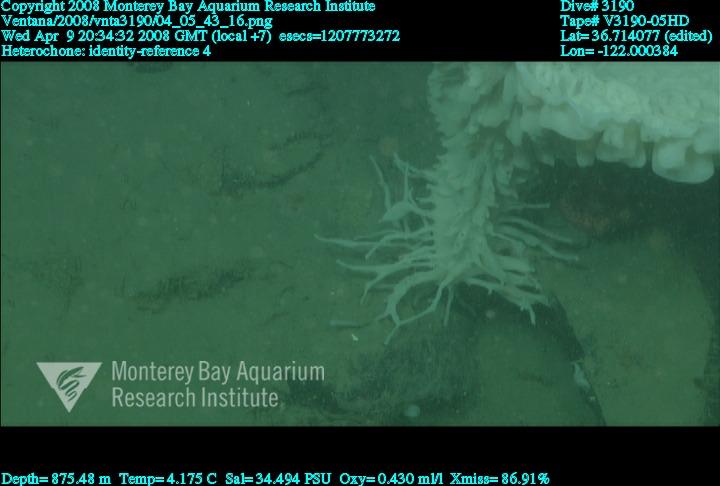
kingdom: Animalia
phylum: Porifera
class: Hexactinellida
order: Sceptrulophora
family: Aphrocallistidae
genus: Heterochone
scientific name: Heterochone
